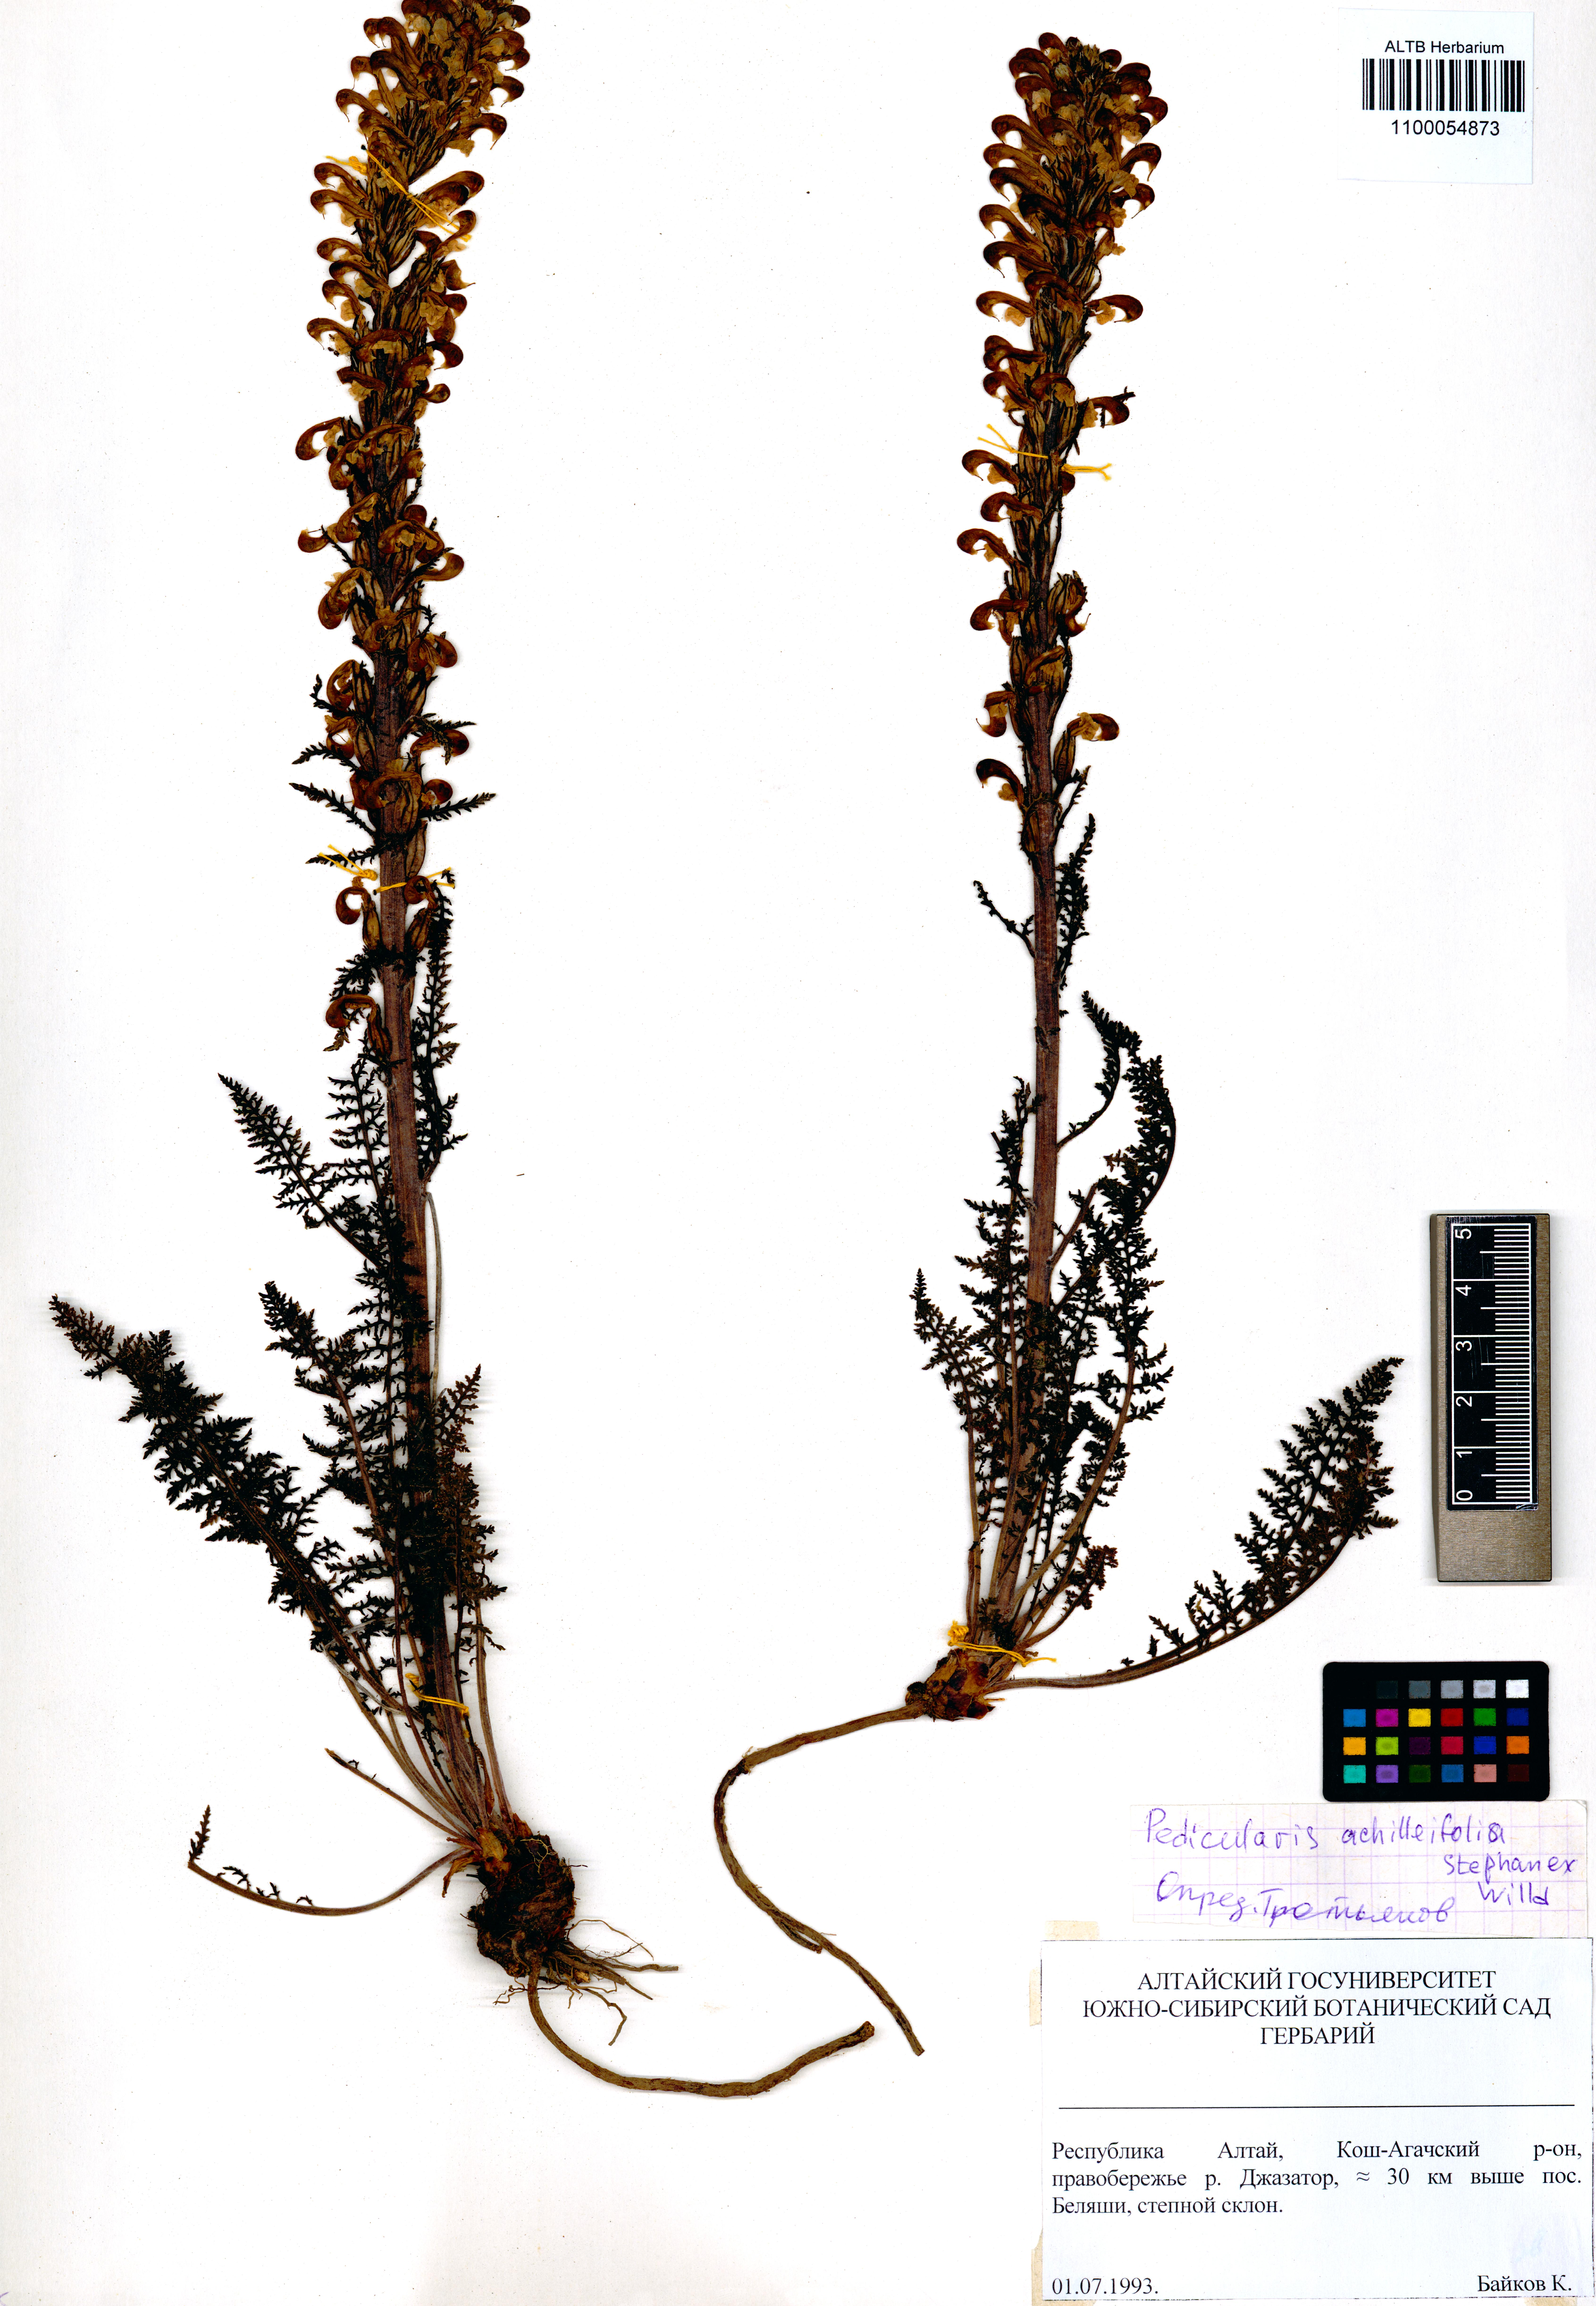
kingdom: Plantae
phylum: Tracheophyta
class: Magnoliopsida
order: Lamiales
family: Orobanchaceae
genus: Pedicularis
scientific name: Pedicularis achilleifolia
